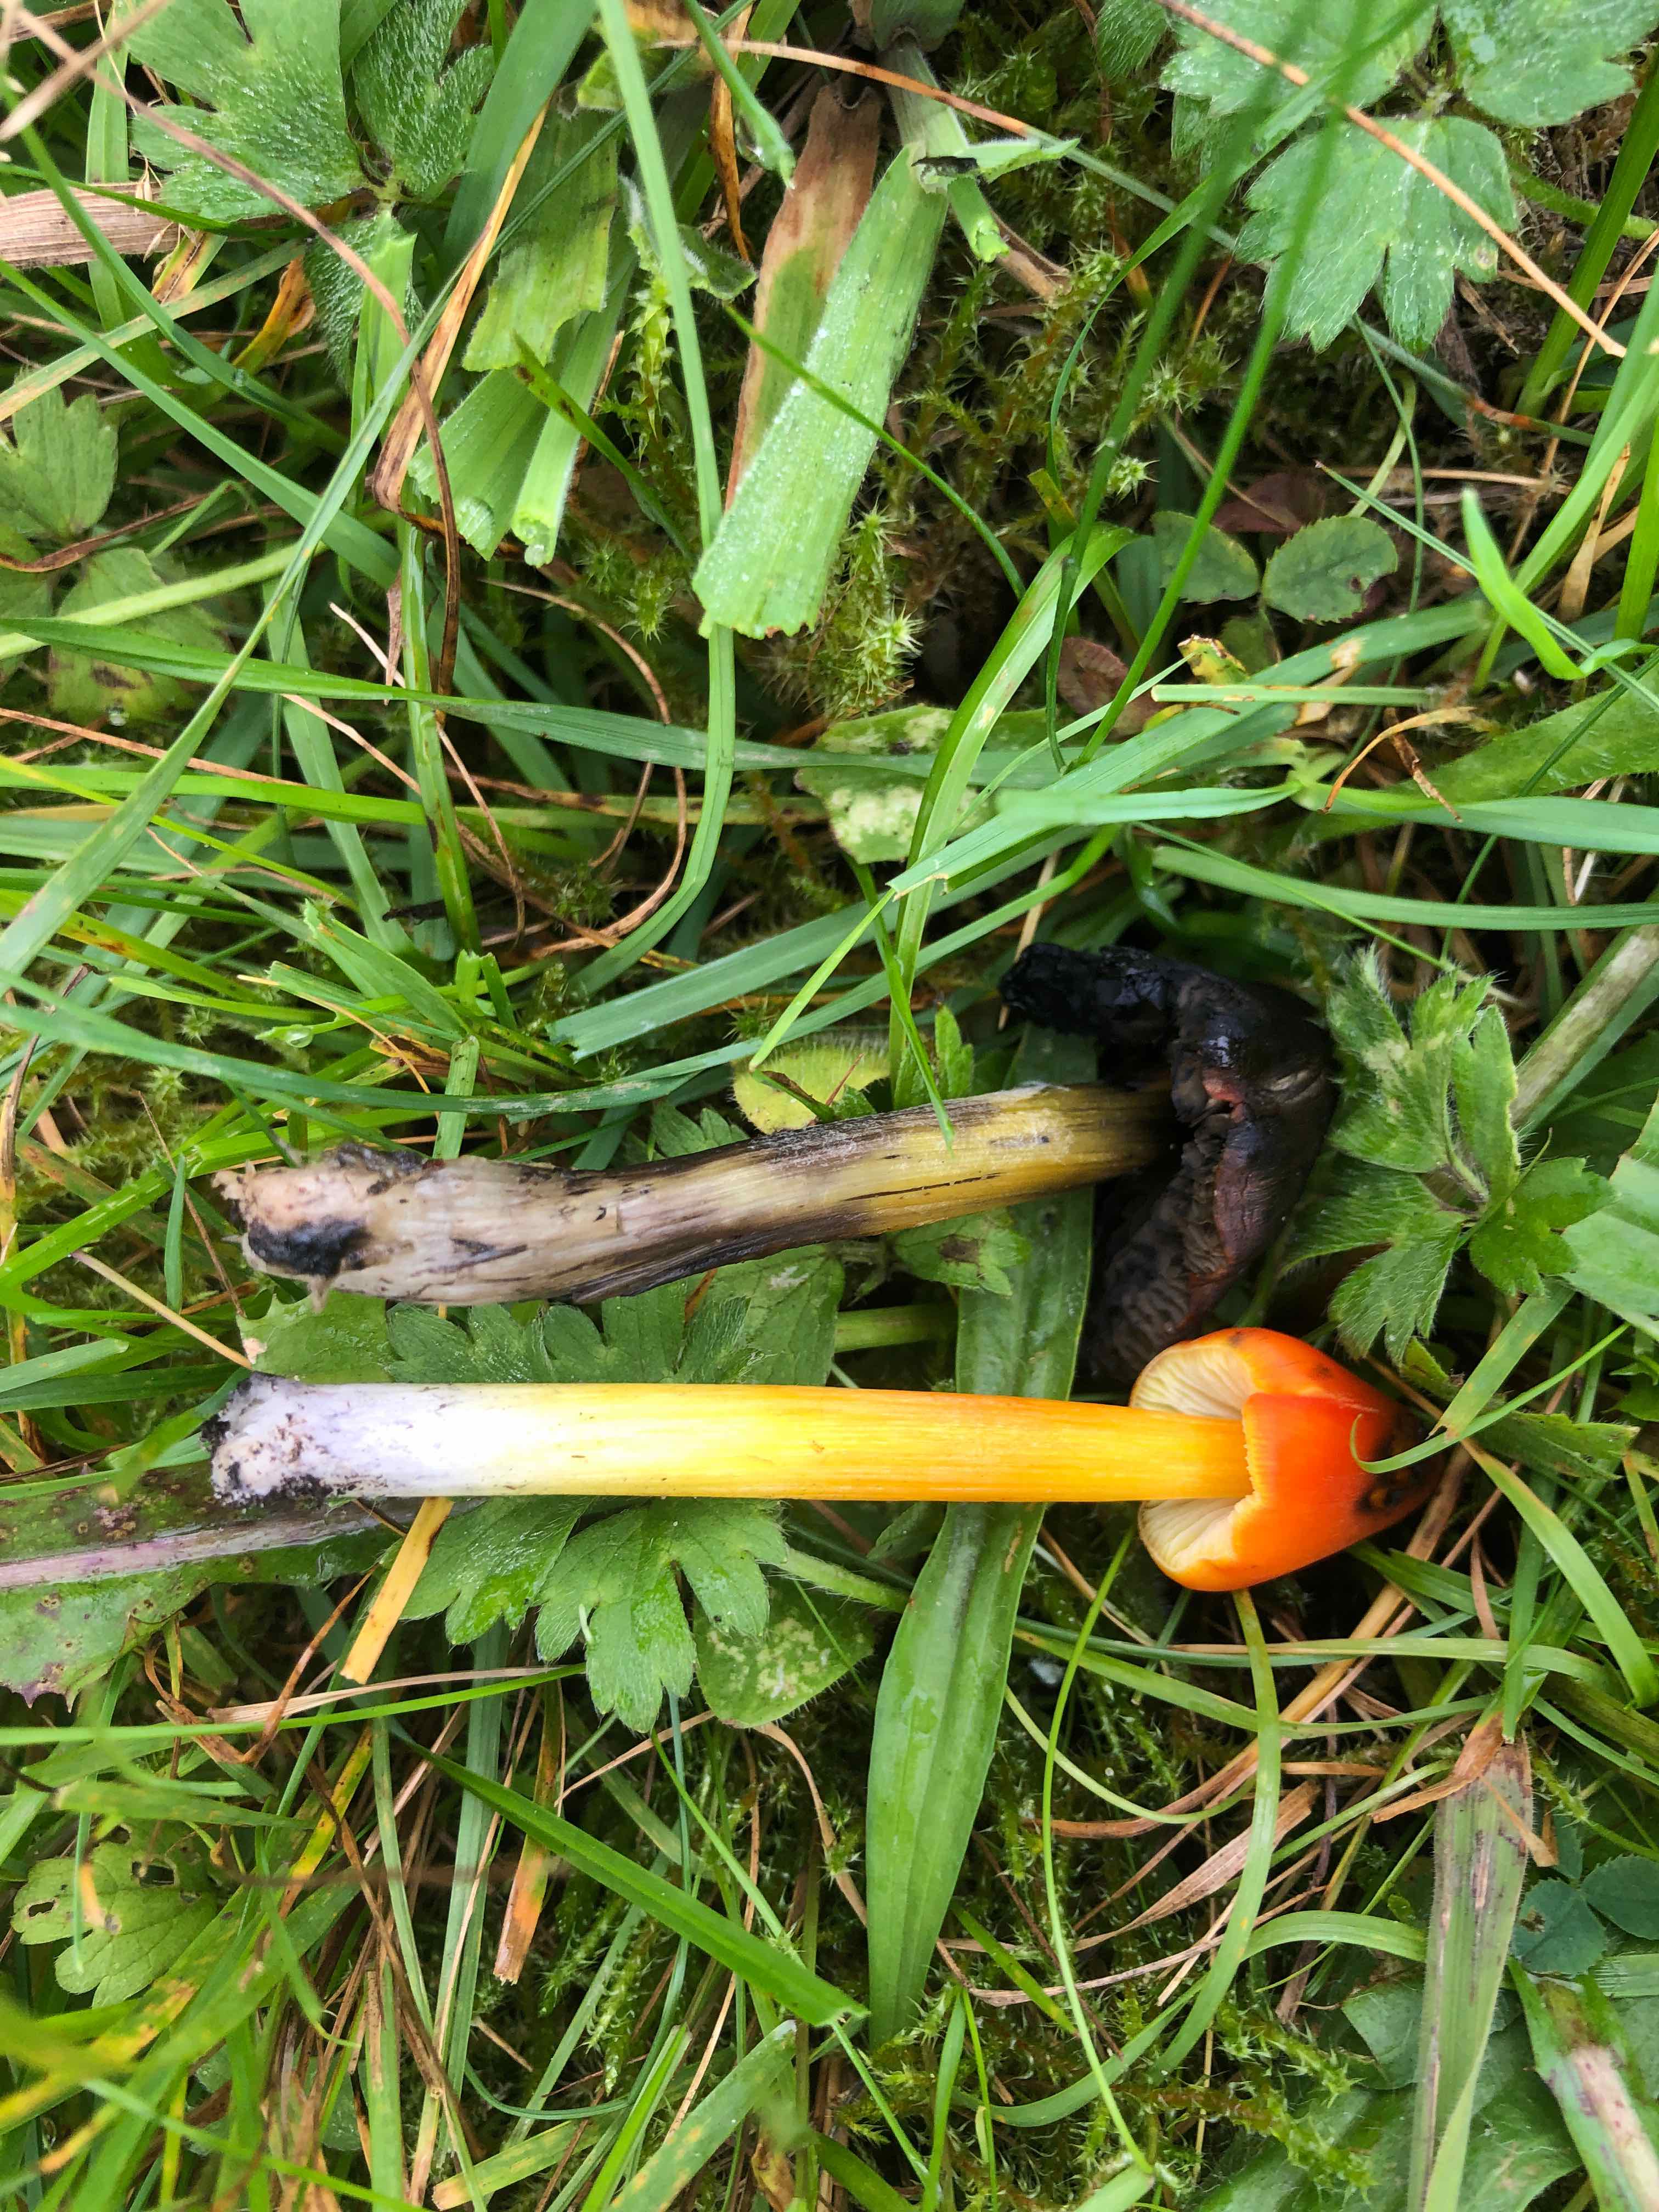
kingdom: Fungi
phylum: Basidiomycota
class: Agaricomycetes
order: Agaricales
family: Hygrophoraceae
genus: Hygrocybe
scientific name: Hygrocybe conica
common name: kegle-vokshat
